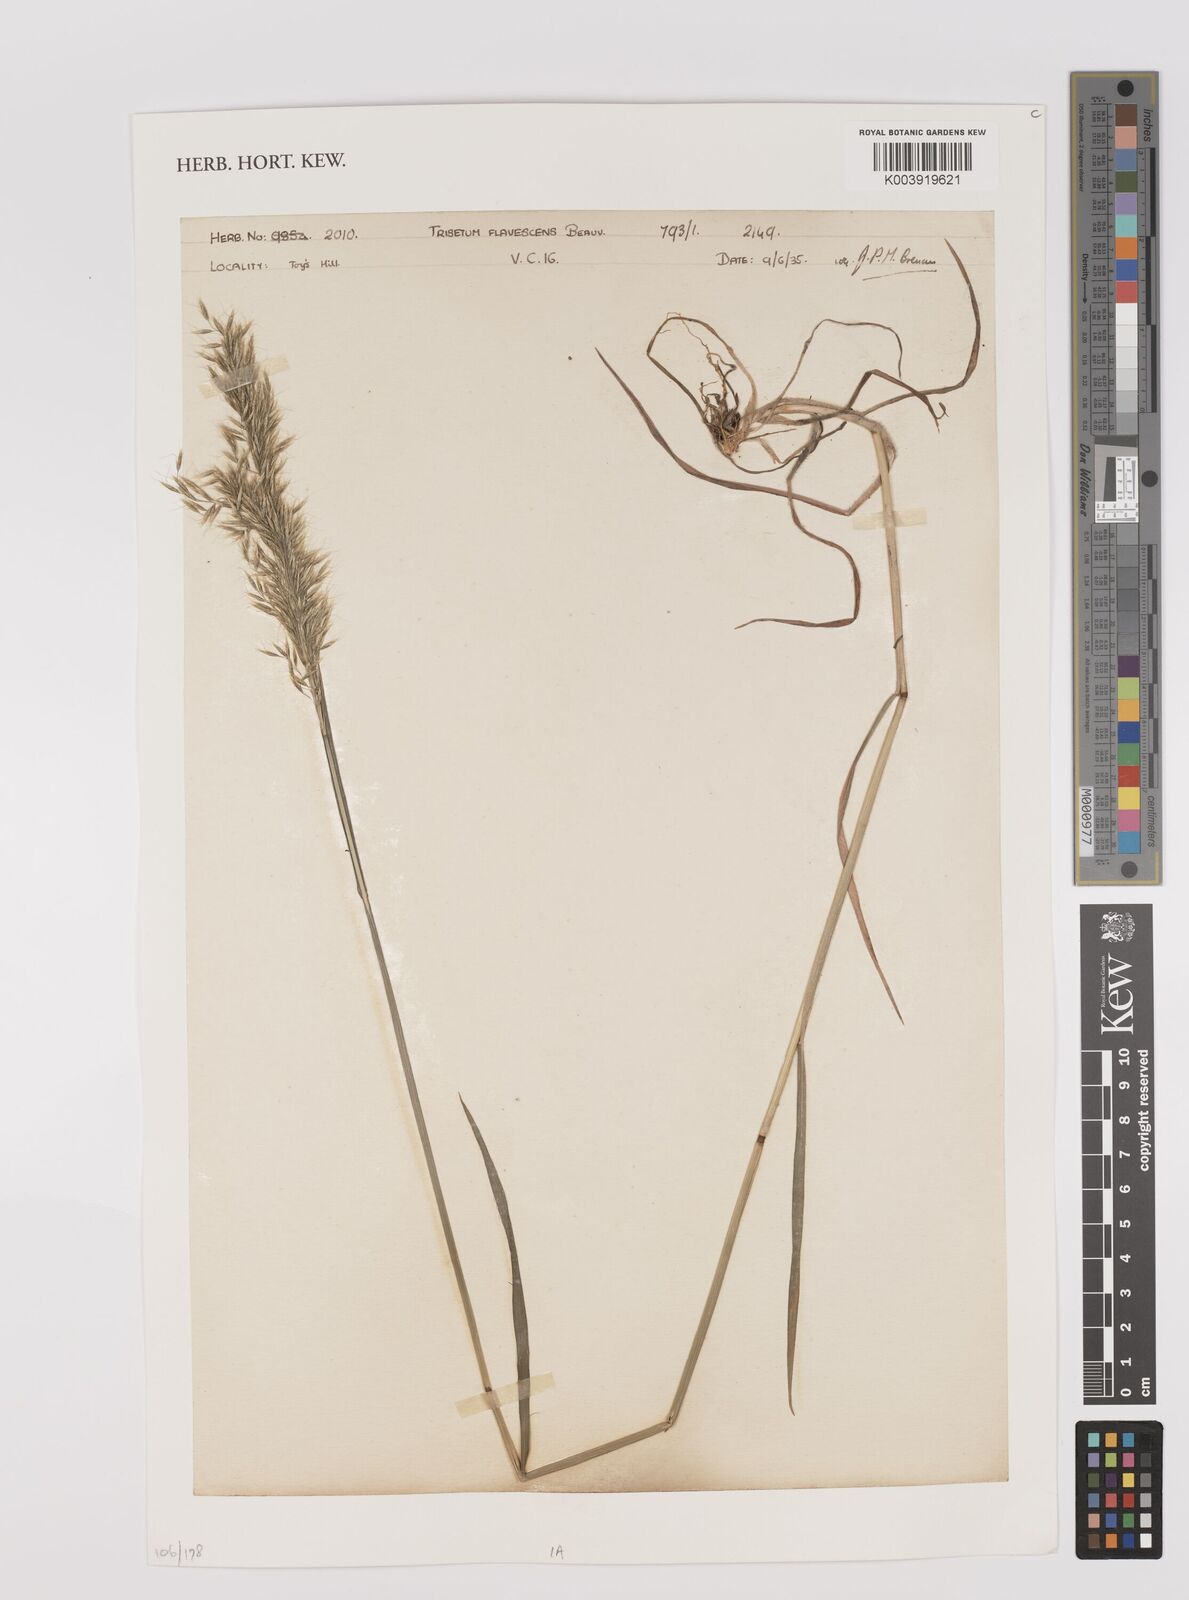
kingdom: Plantae
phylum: Tracheophyta
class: Liliopsida
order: Poales
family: Poaceae
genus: Trisetum
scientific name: Trisetum flavescens
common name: Yellow oat-grass
